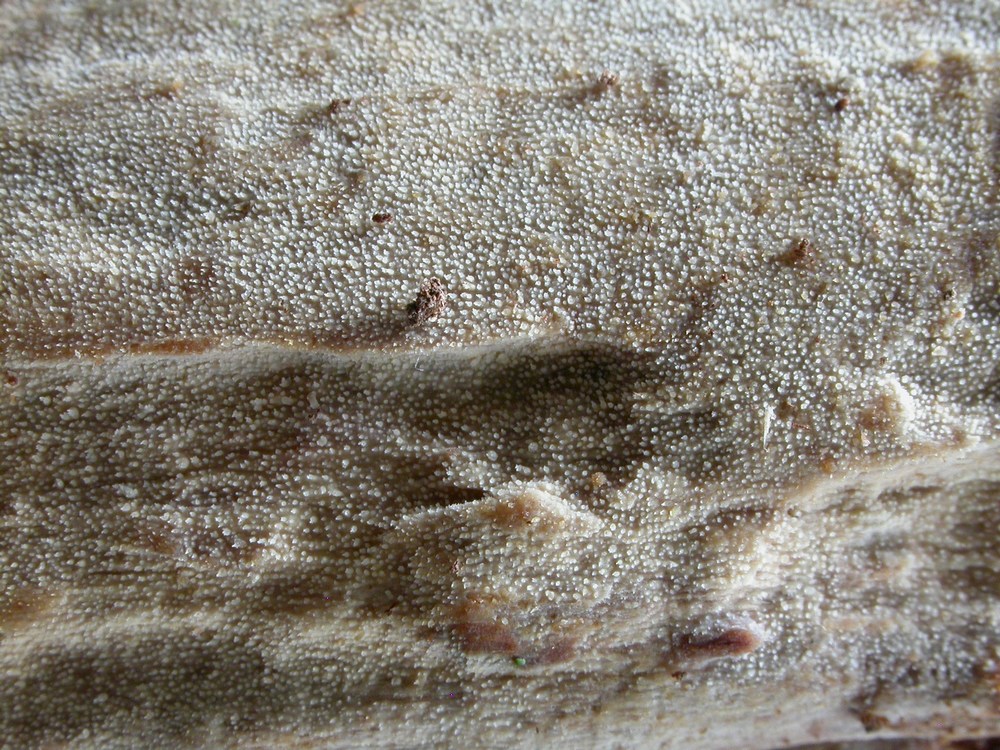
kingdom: Fungi
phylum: Basidiomycota
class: Agaricomycetes
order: Hymenochaetales
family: Rickenellaceae
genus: Resinicium
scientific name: Resinicium bicolor
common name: almindelig vokstand
